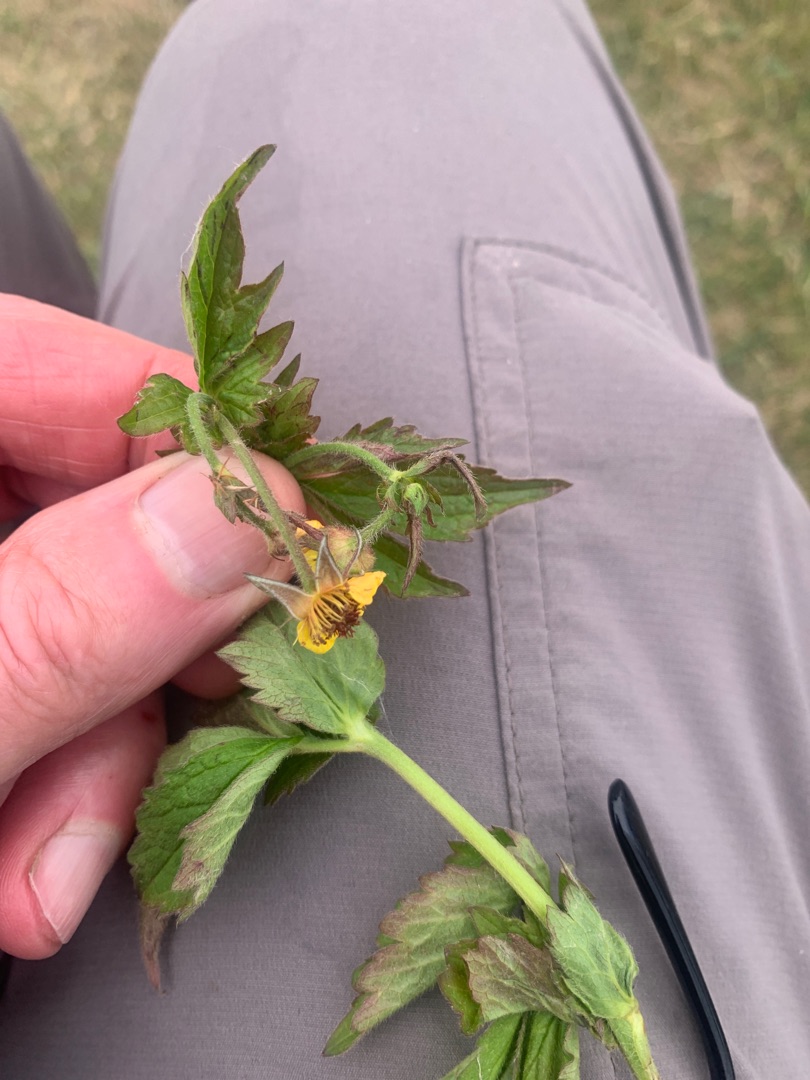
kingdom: Plantae
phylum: Tracheophyta
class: Magnoliopsida
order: Rosales
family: Rosaceae
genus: Geum
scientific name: Geum urbanum
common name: Feber-nellikerod
